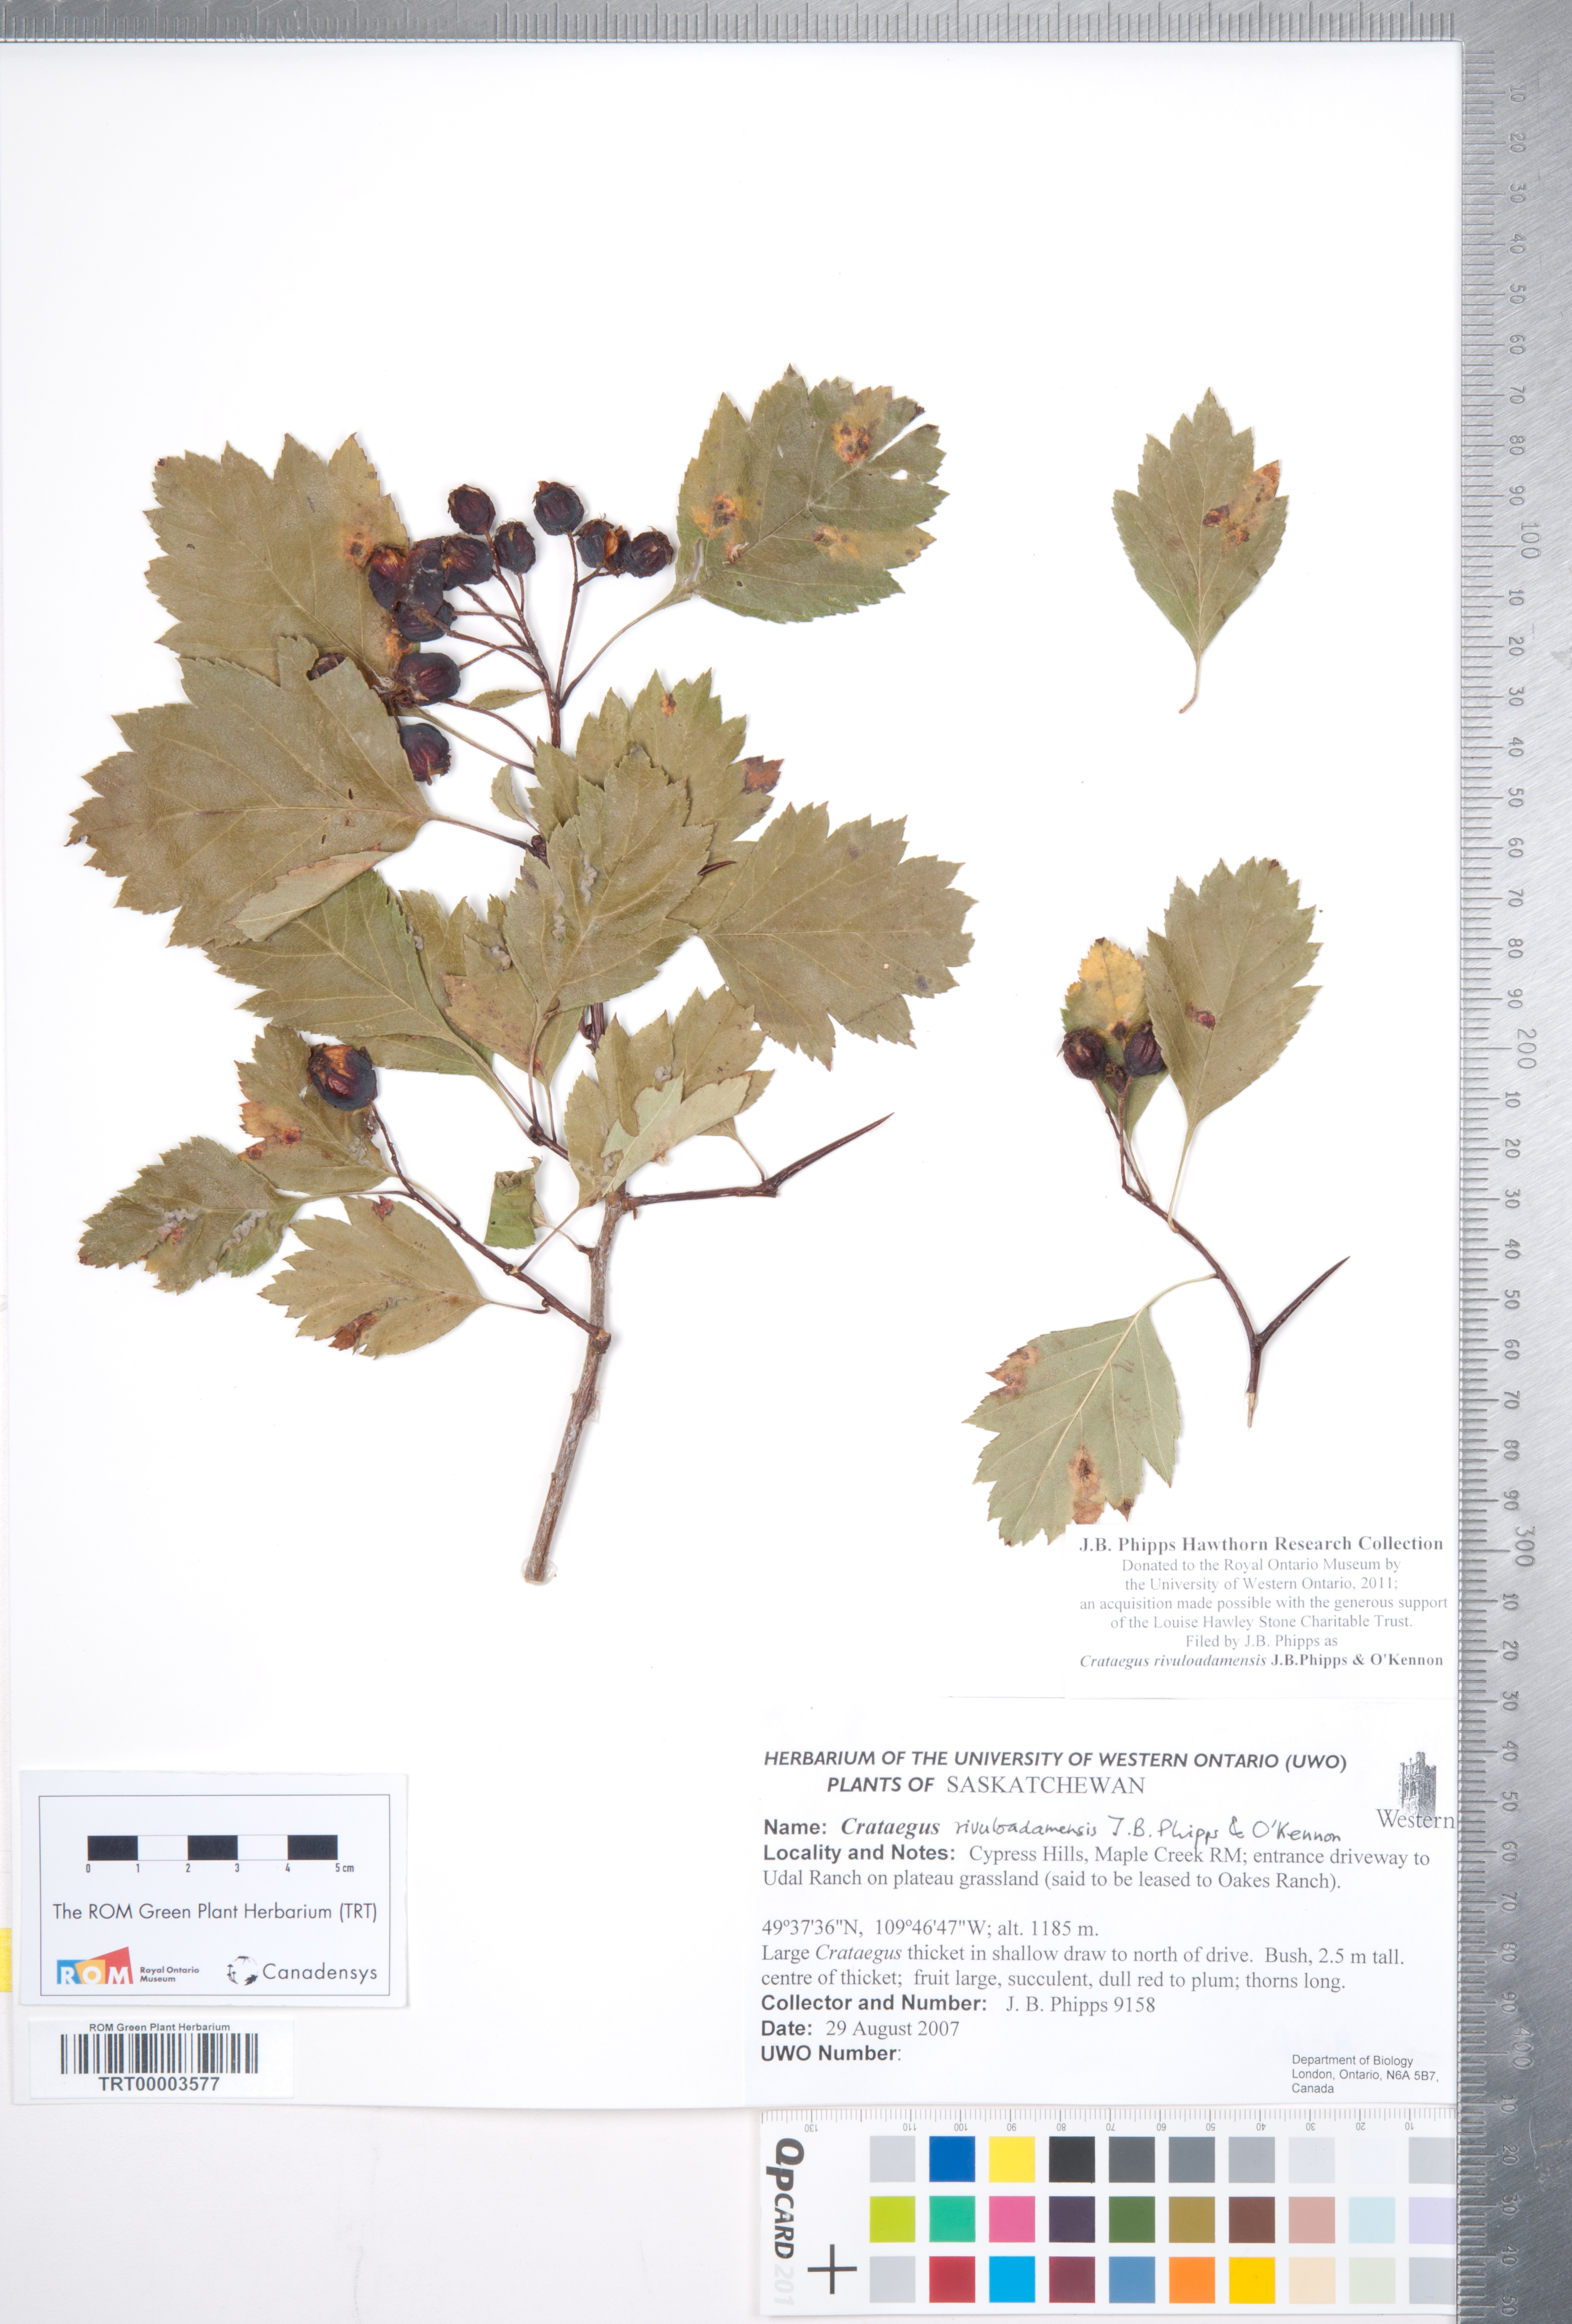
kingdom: Plantae
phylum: Tracheophyta
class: Magnoliopsida
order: Rosales
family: Rosaceae
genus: Crataegus
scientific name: Crataegus rivuloadamensis
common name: Adams creek hawthorn
